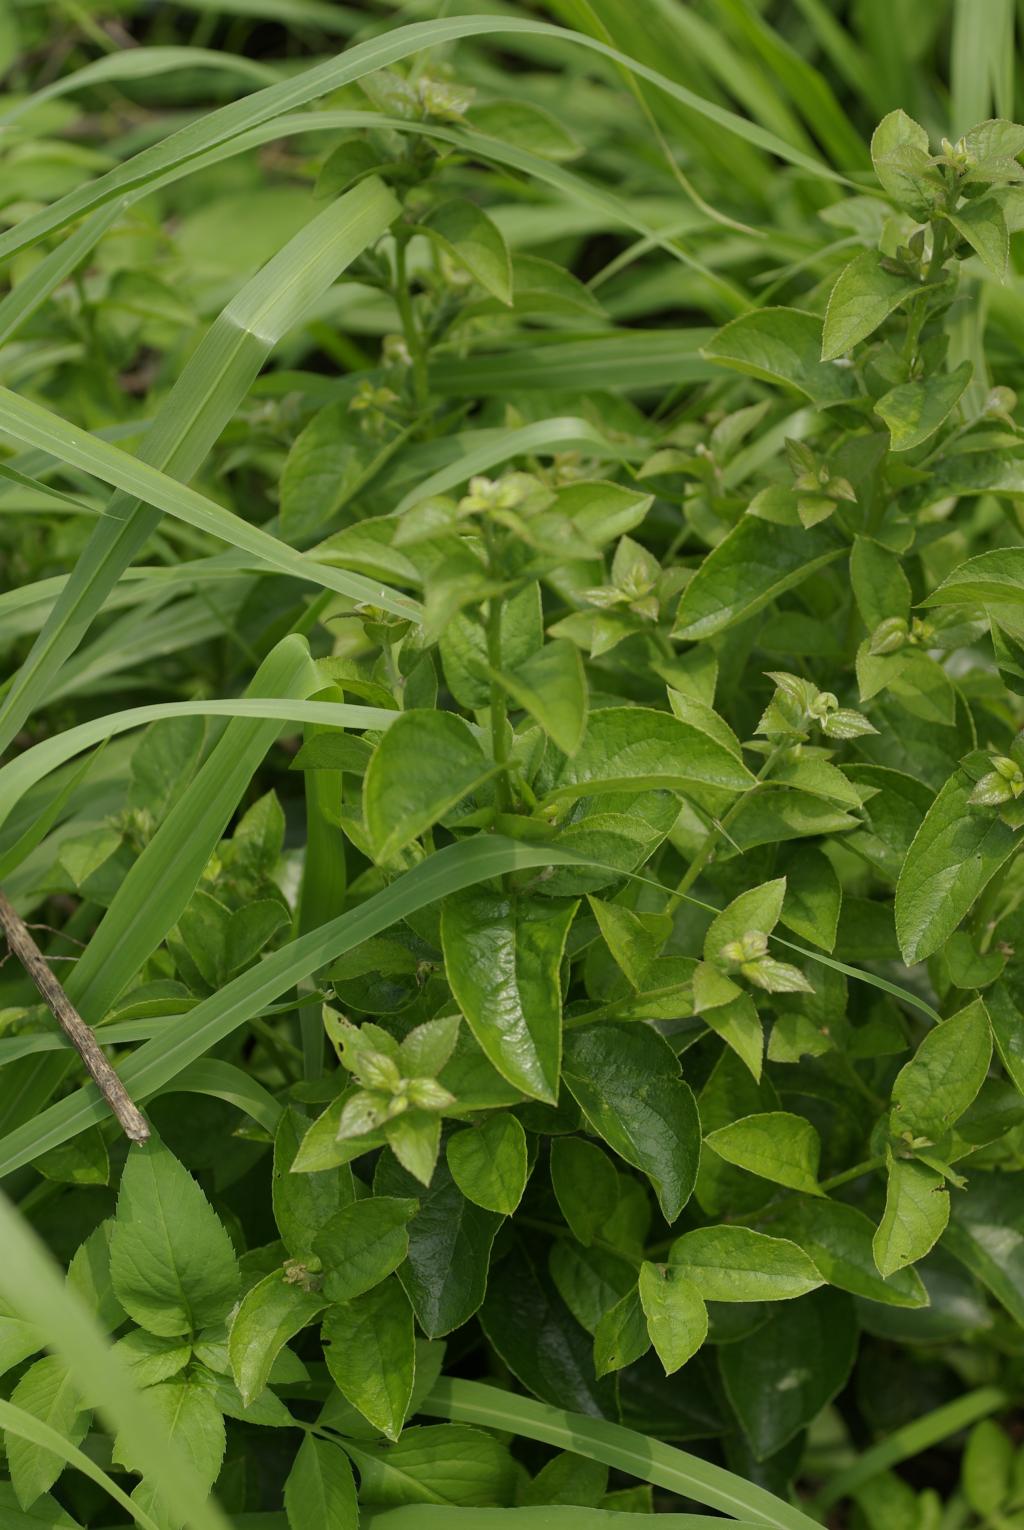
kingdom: Plantae
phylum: Tracheophyta
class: Magnoliopsida
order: Ericales
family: Symplocaceae
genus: Symplocos
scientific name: Symplocos paniculata
